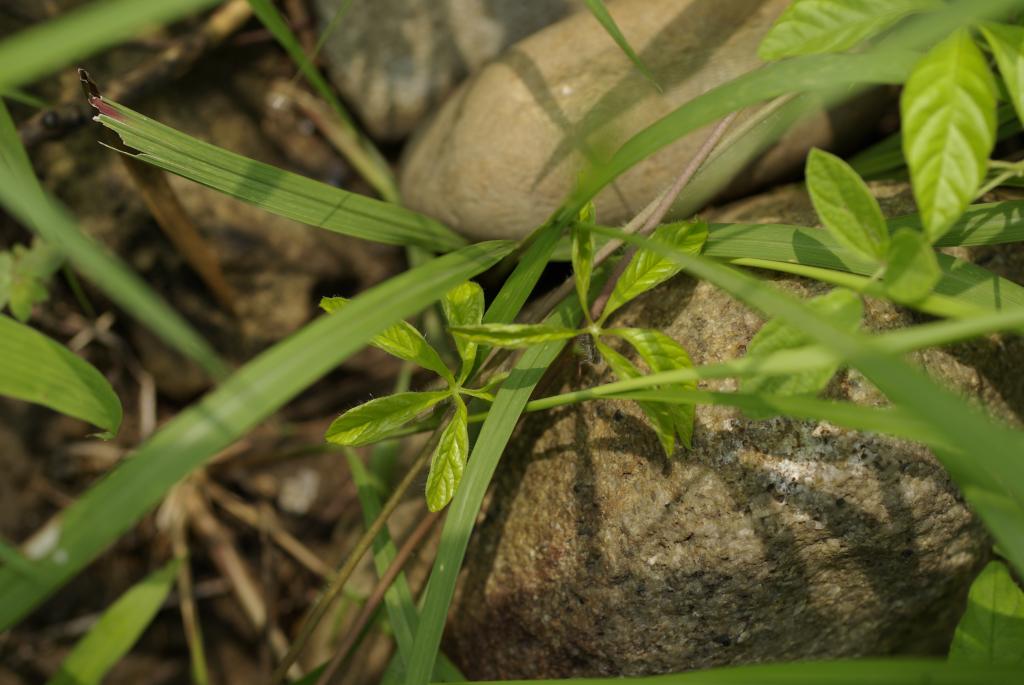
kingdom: Plantae
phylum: Tracheophyta
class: Magnoliopsida
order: Solanales
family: Convolvulaceae
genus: Ipomoea
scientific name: Ipomoea
